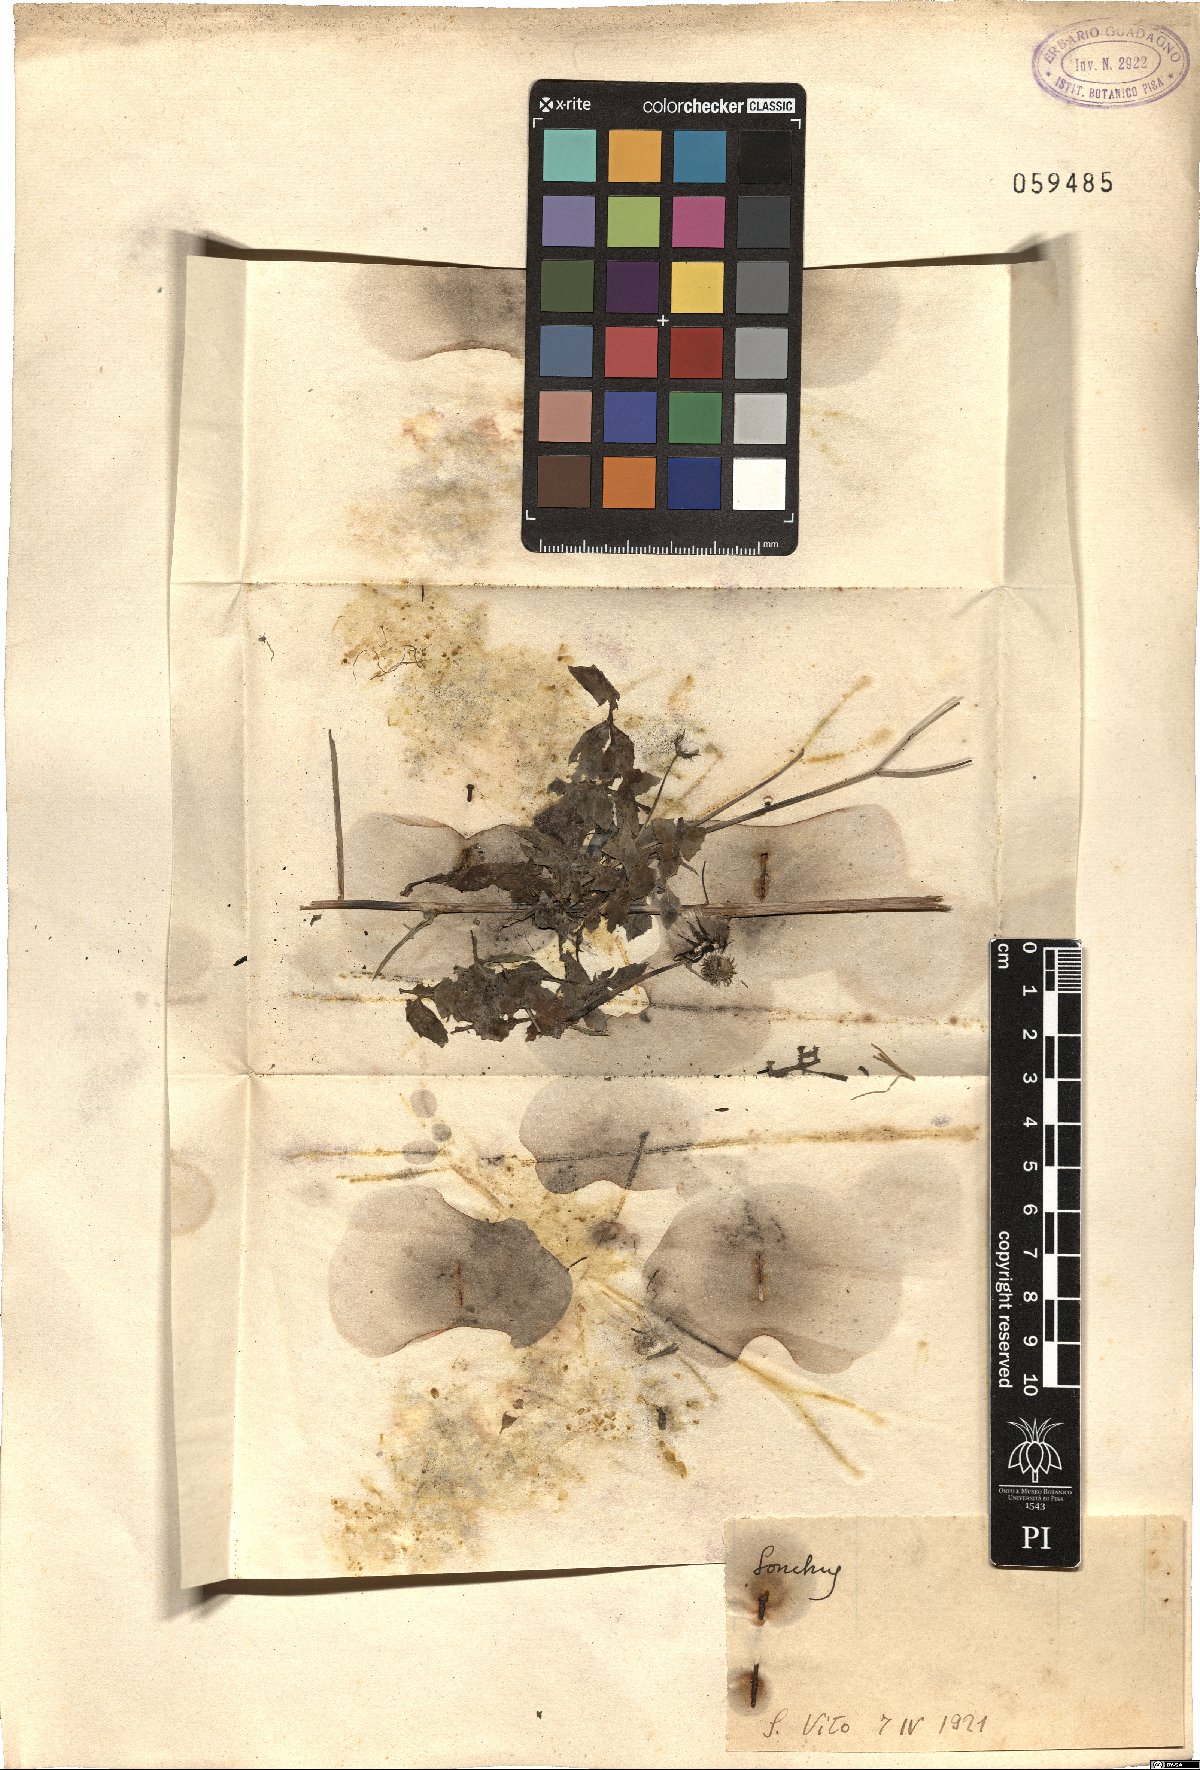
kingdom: Plantae
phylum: Tracheophyta
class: Magnoliopsida
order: Asterales
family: Asteraceae
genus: Sonchus
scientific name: Sonchus
